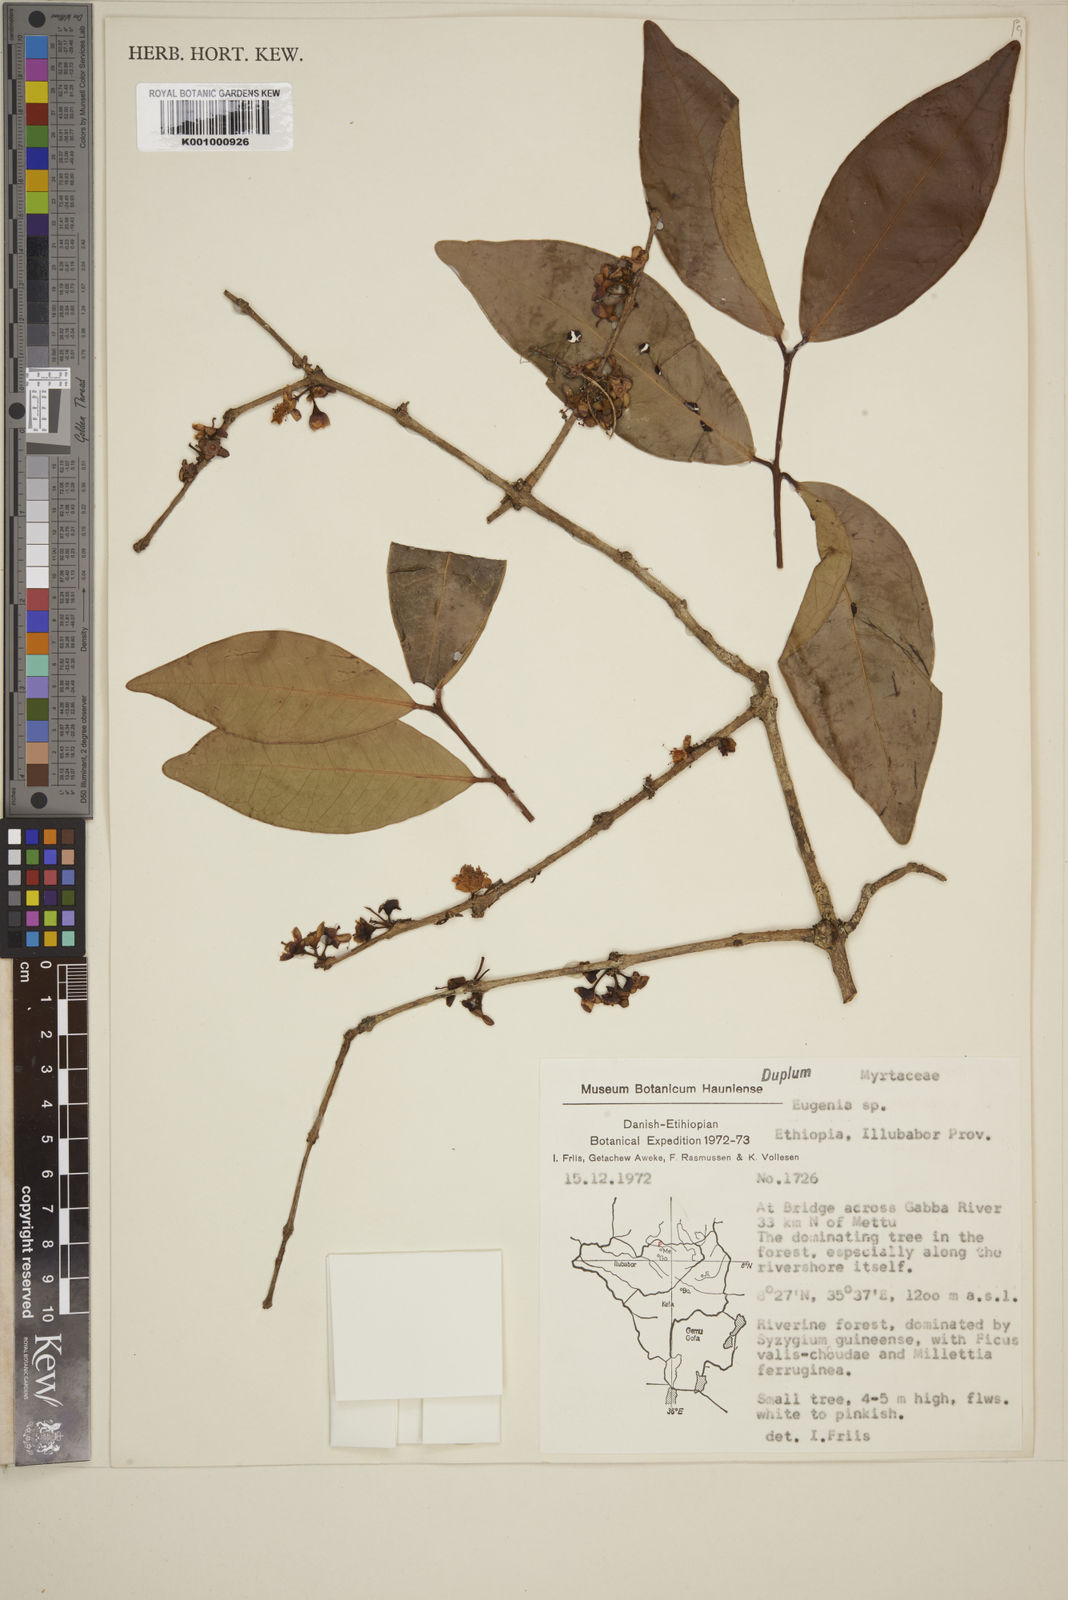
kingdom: Plantae
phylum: Tracheophyta
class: Magnoliopsida
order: Myrtales
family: Myrtaceae
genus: Eugenia
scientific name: Eugenia bukobensis
